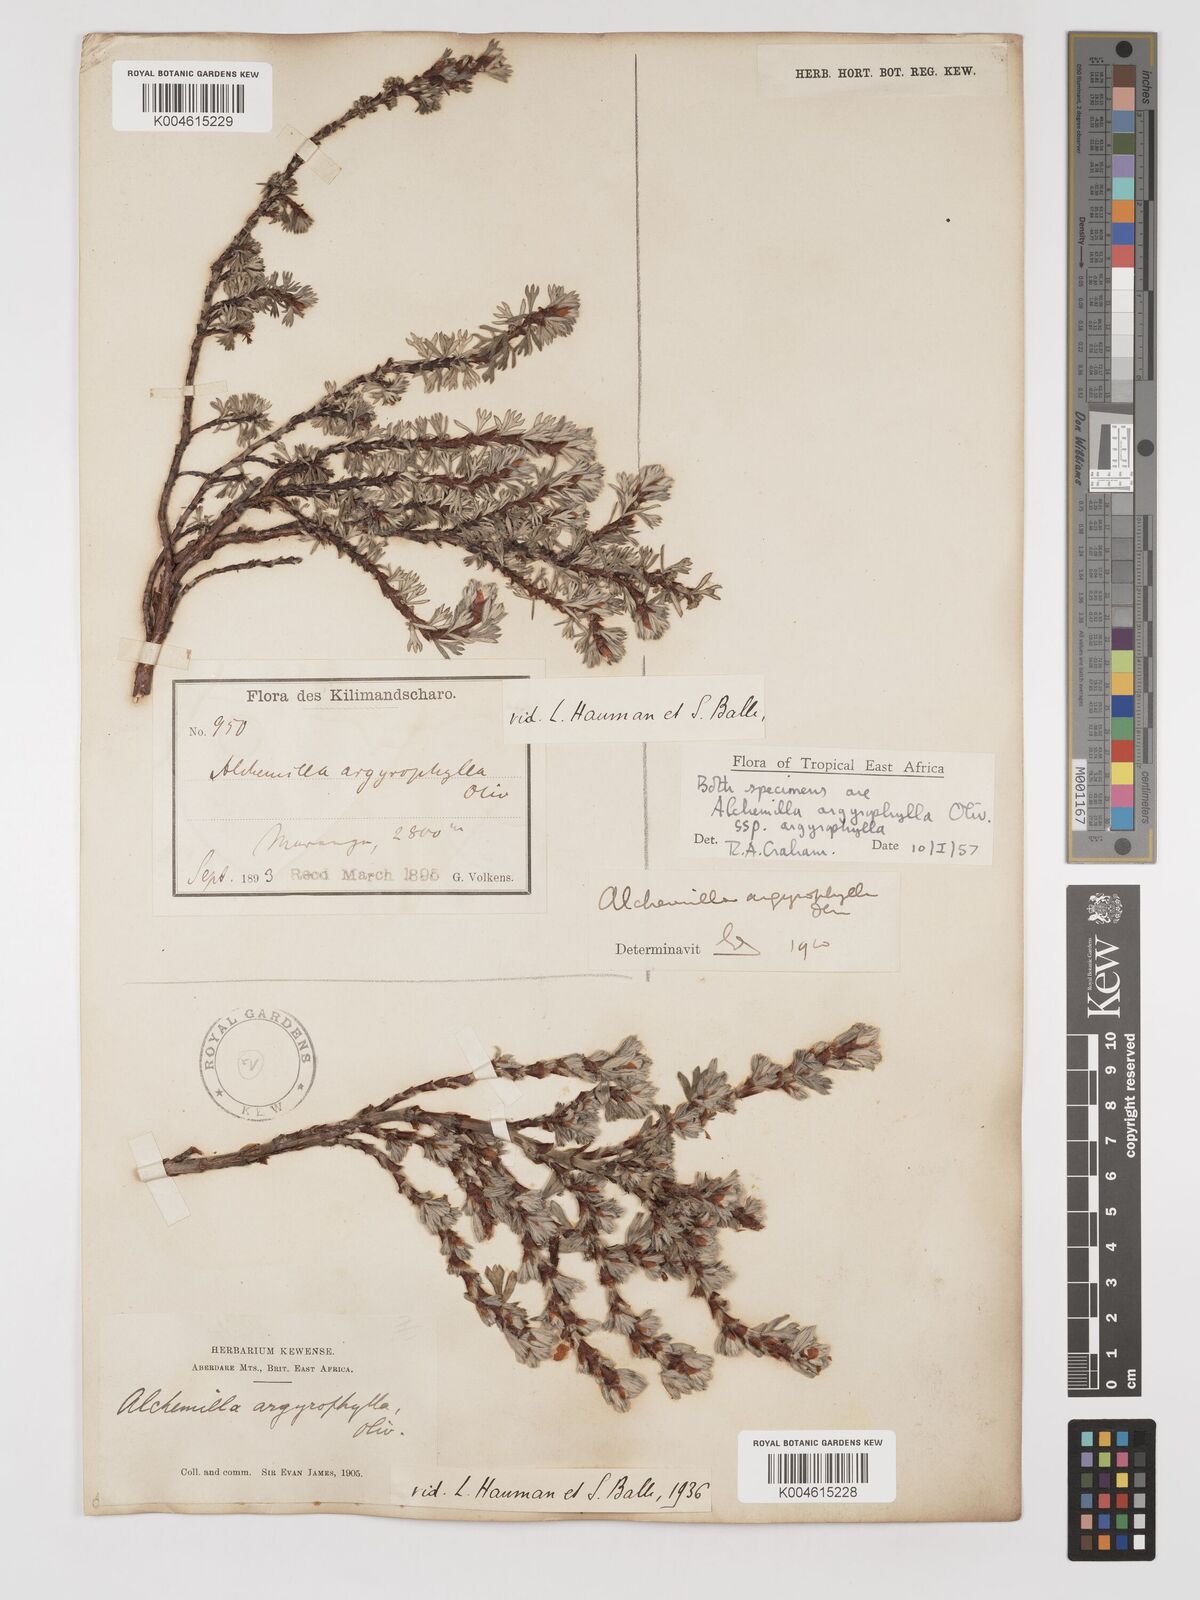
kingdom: Plantae
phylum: Tracheophyta
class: Magnoliopsida
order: Rosales
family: Rosaceae
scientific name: Rosaceae
